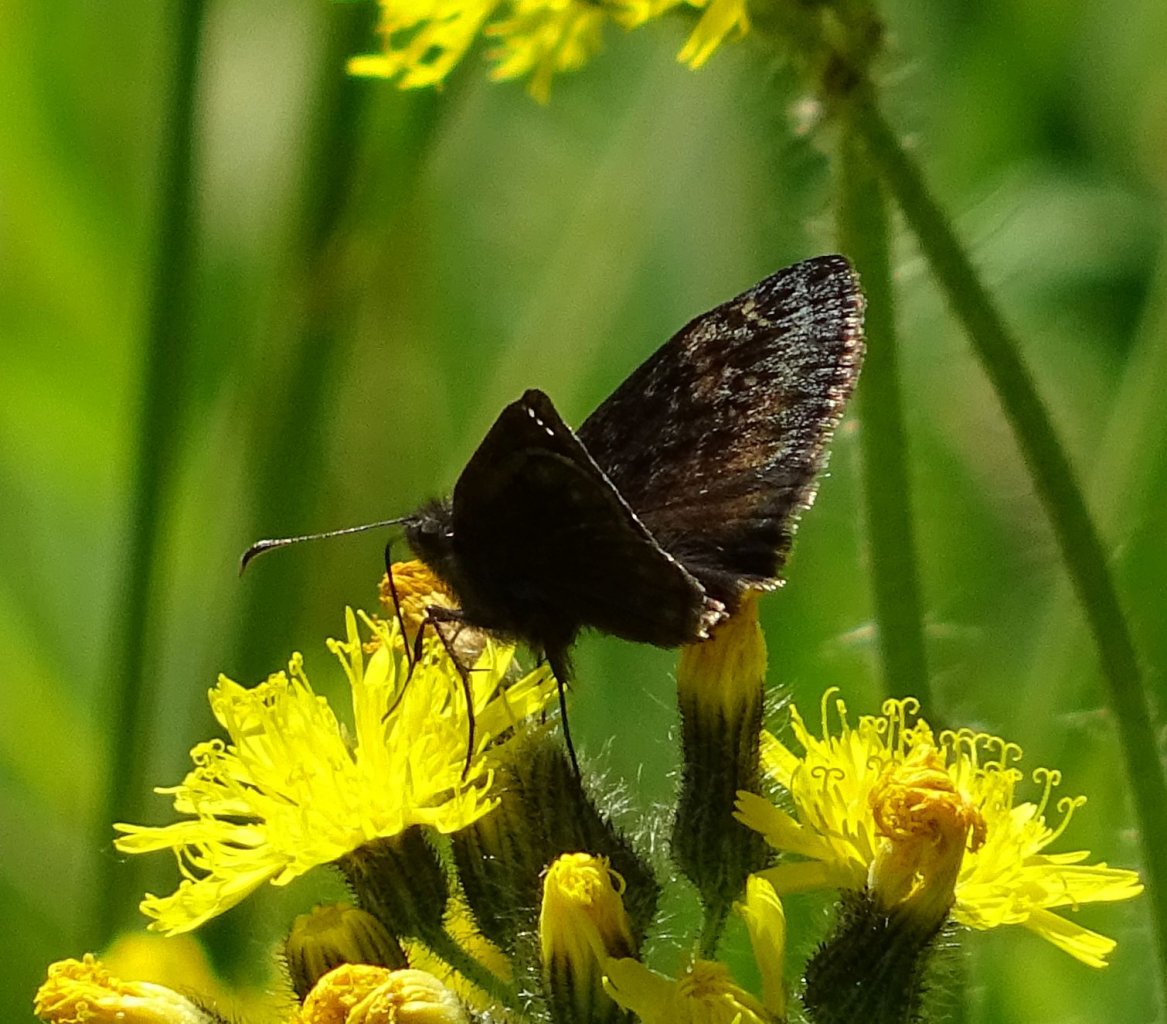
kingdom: Animalia
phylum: Arthropoda
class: Insecta
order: Lepidoptera
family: Hesperiidae
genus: Gesta
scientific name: Gesta
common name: Wild Indigo Duskywing
